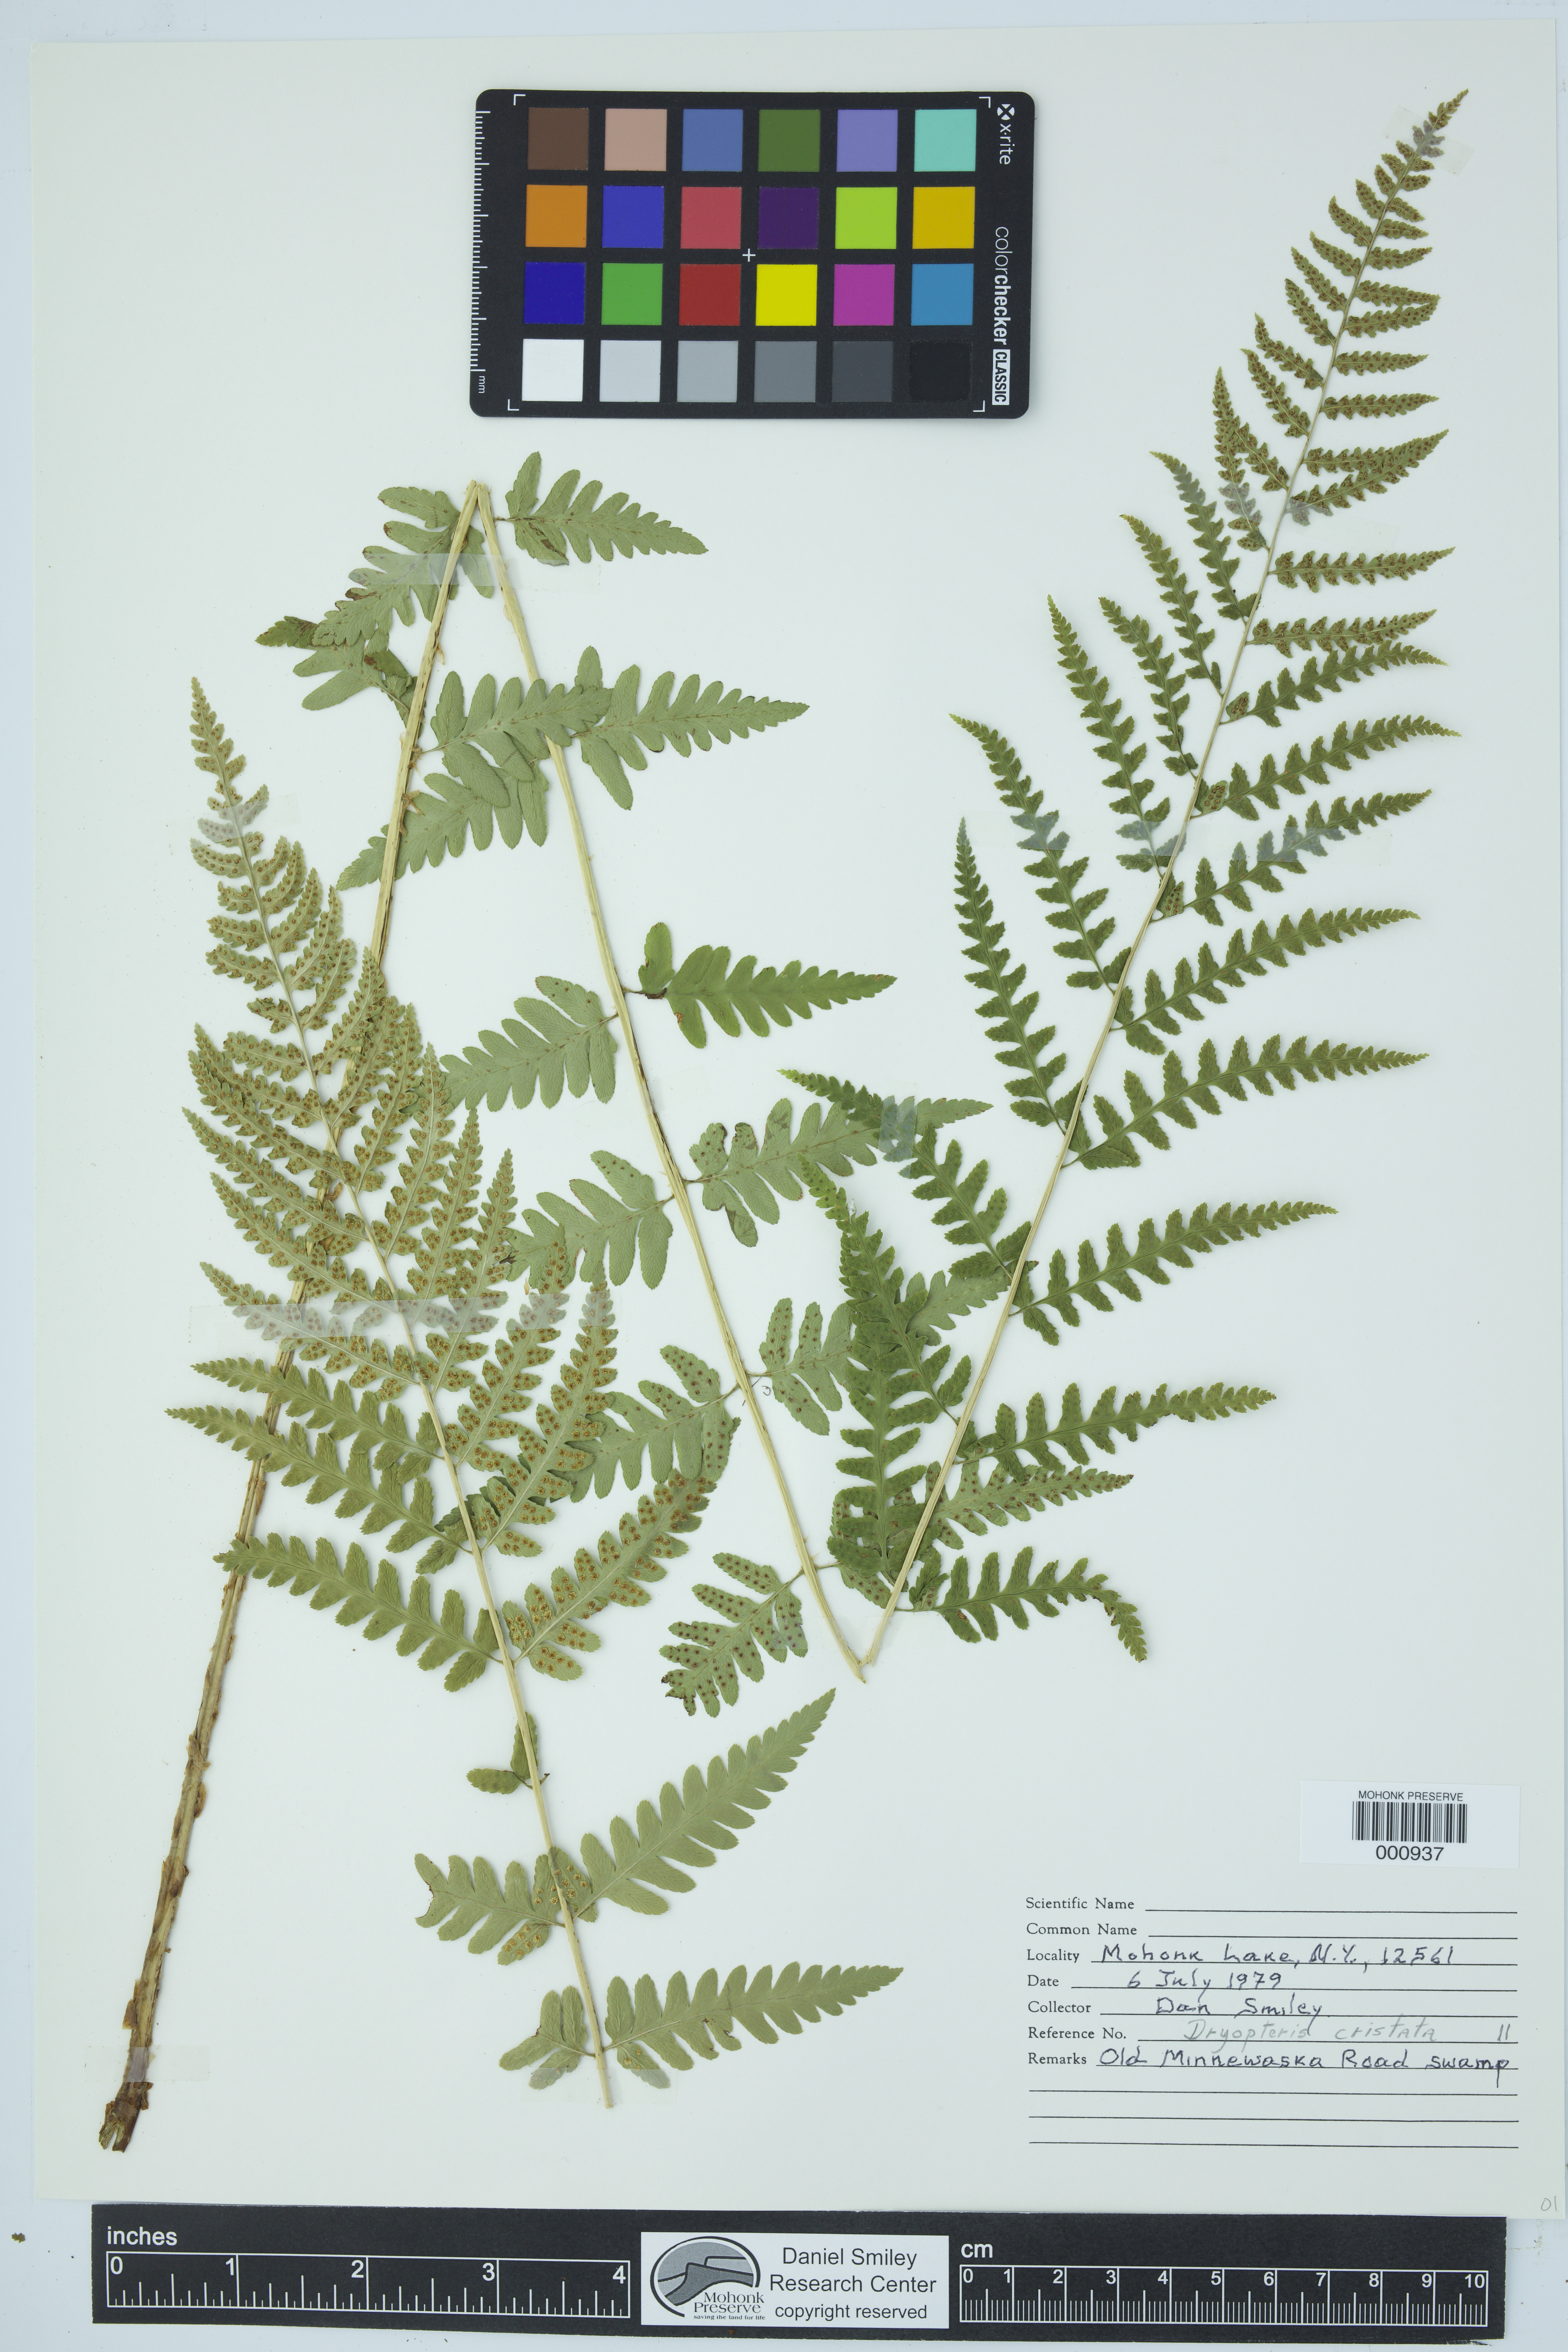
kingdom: Plantae
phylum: Tracheophyta
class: Polypodiopsida
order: Polypodiales
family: Dryopteridaceae
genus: Dryopteris
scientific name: Dryopteris cristata
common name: Crested wood fern
